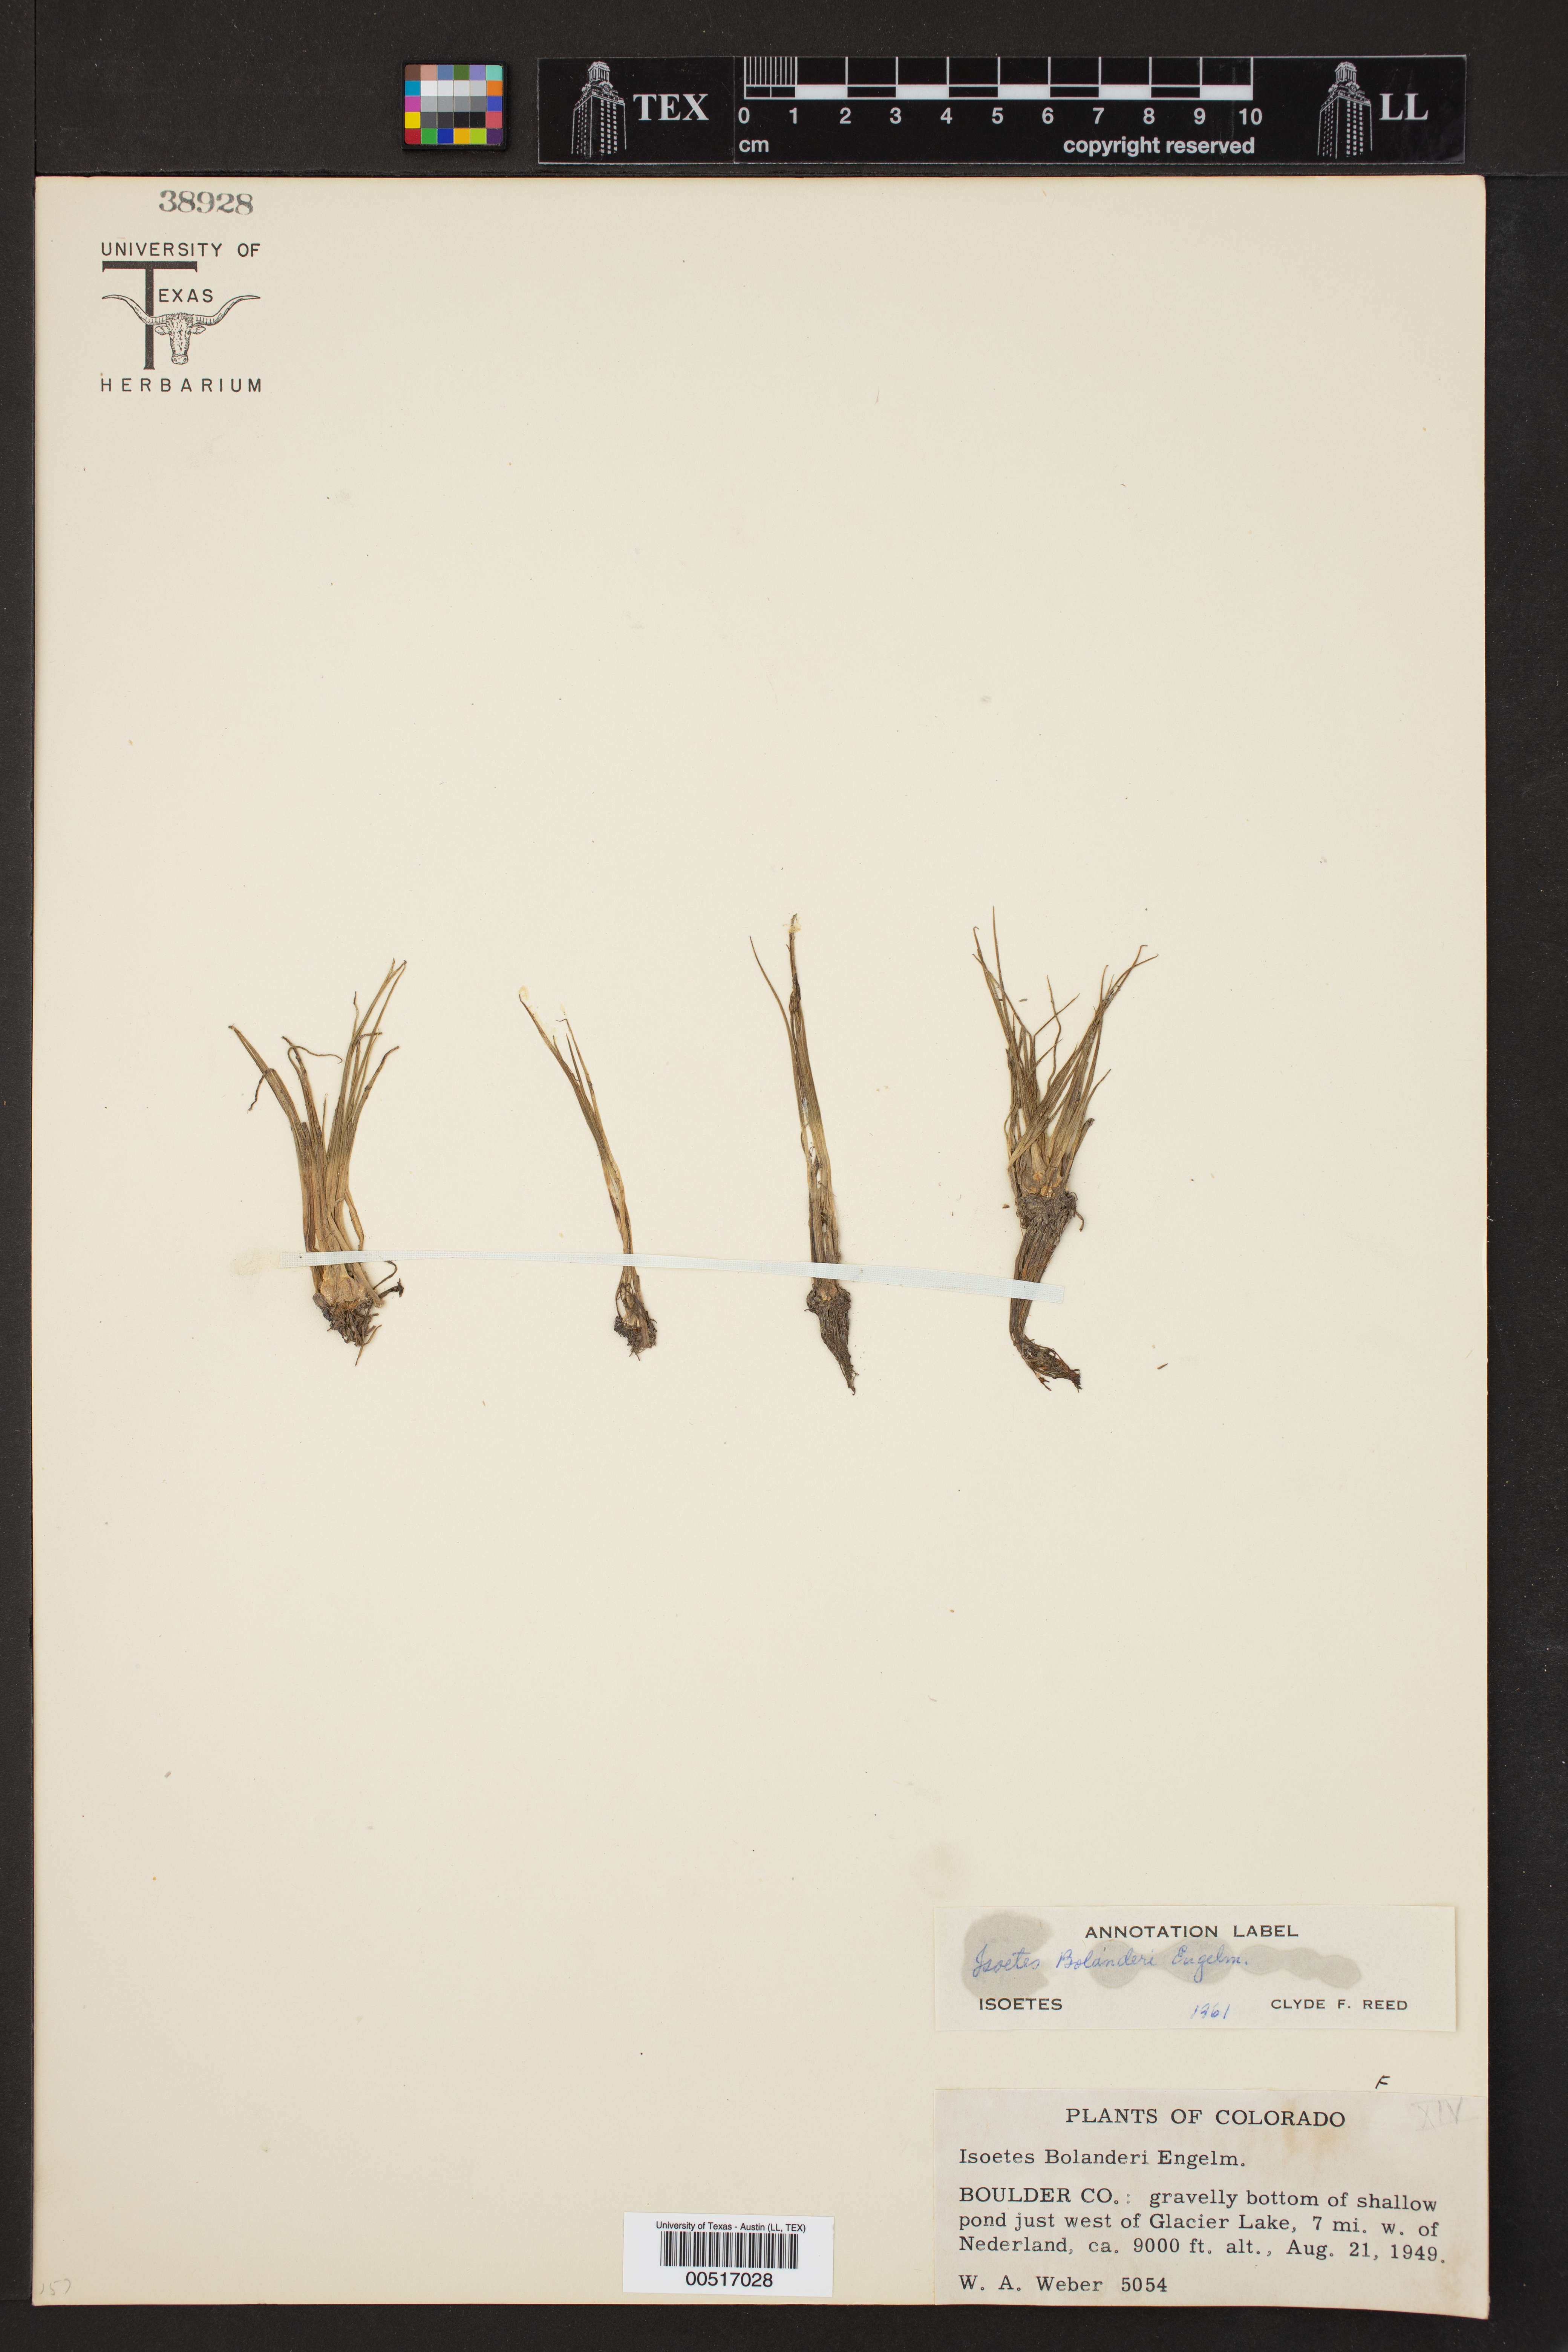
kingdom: Plantae
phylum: Tracheophyta
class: Lycopodiopsida
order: Isoetales
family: Isoetaceae
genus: Isoetes
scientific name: Isoetes bolanderi
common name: Bolander's quillwort
